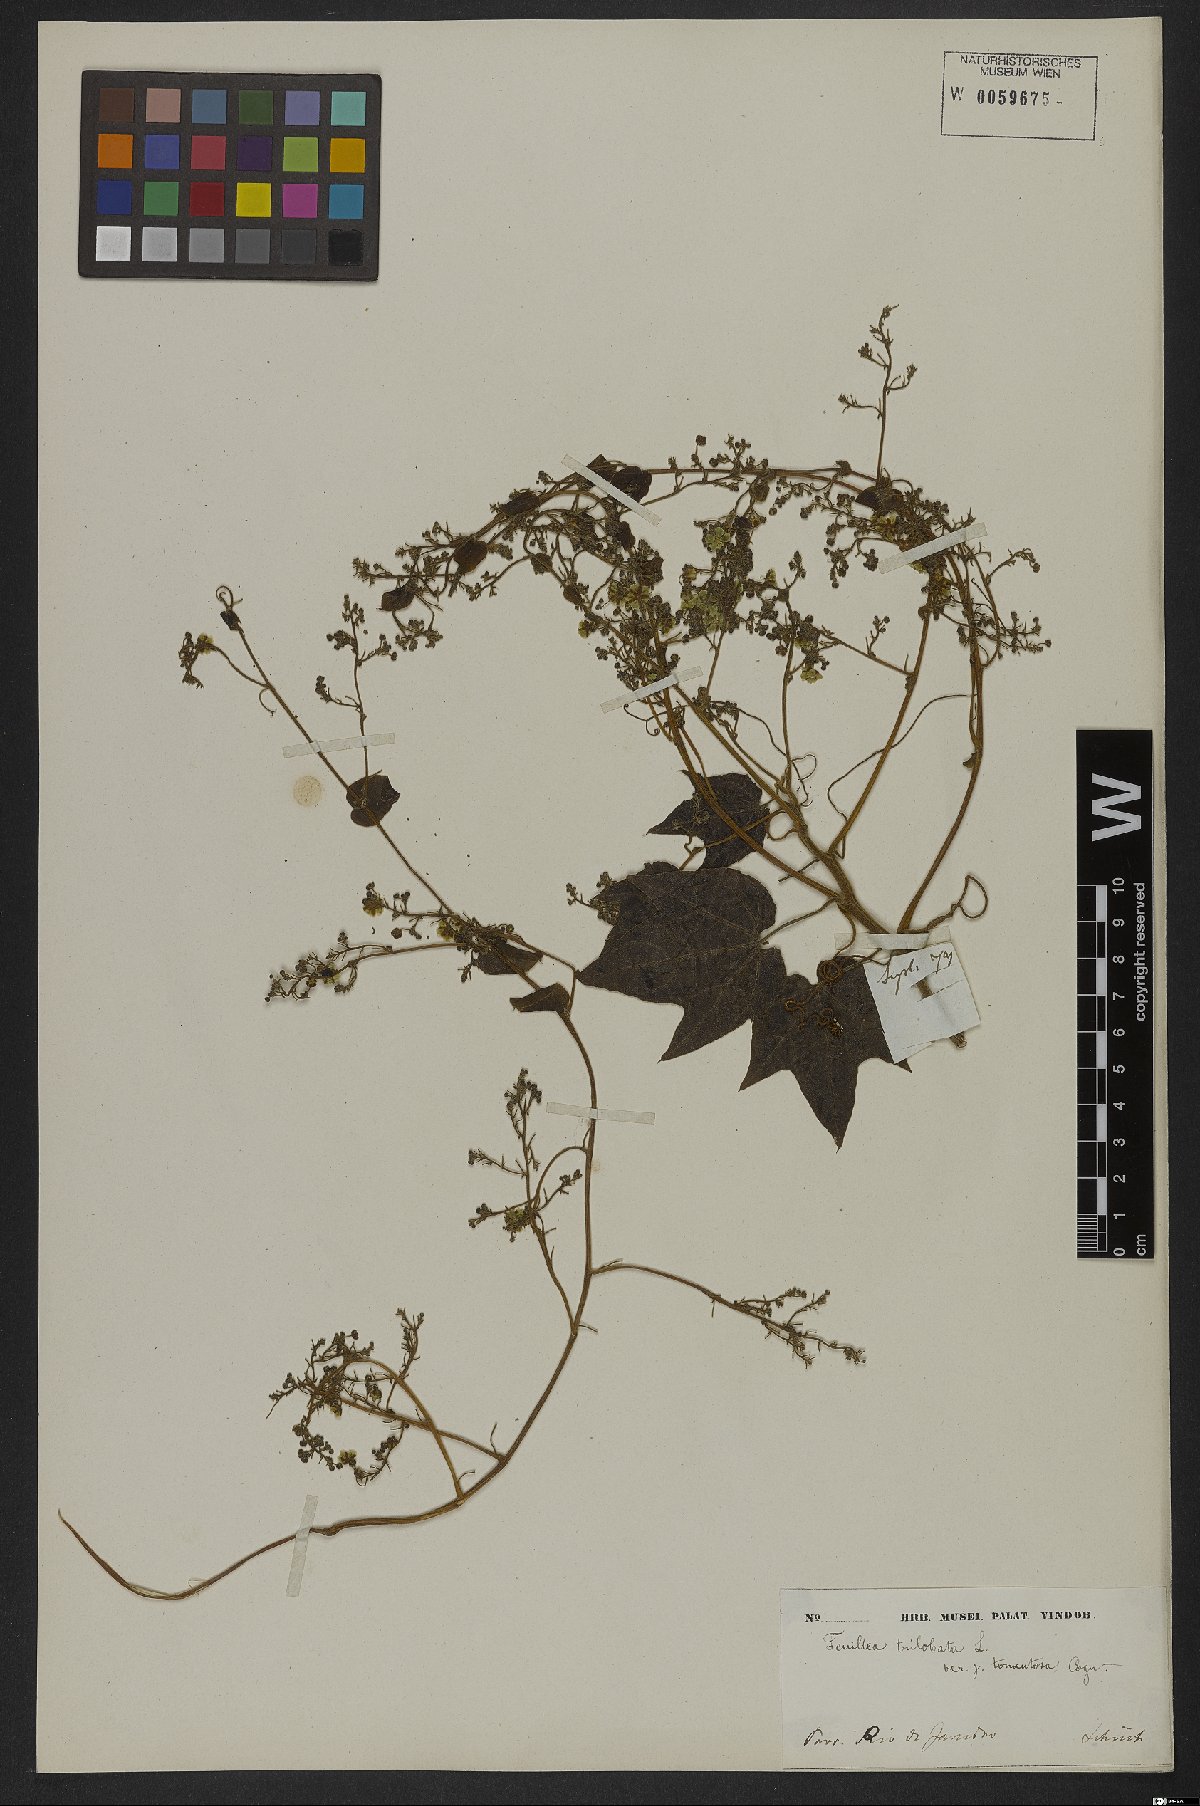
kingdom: Plantae
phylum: Tracheophyta
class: Magnoliopsida
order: Cucurbitales
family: Cucurbitaceae
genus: Fevillea
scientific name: Fevillea trilobata
